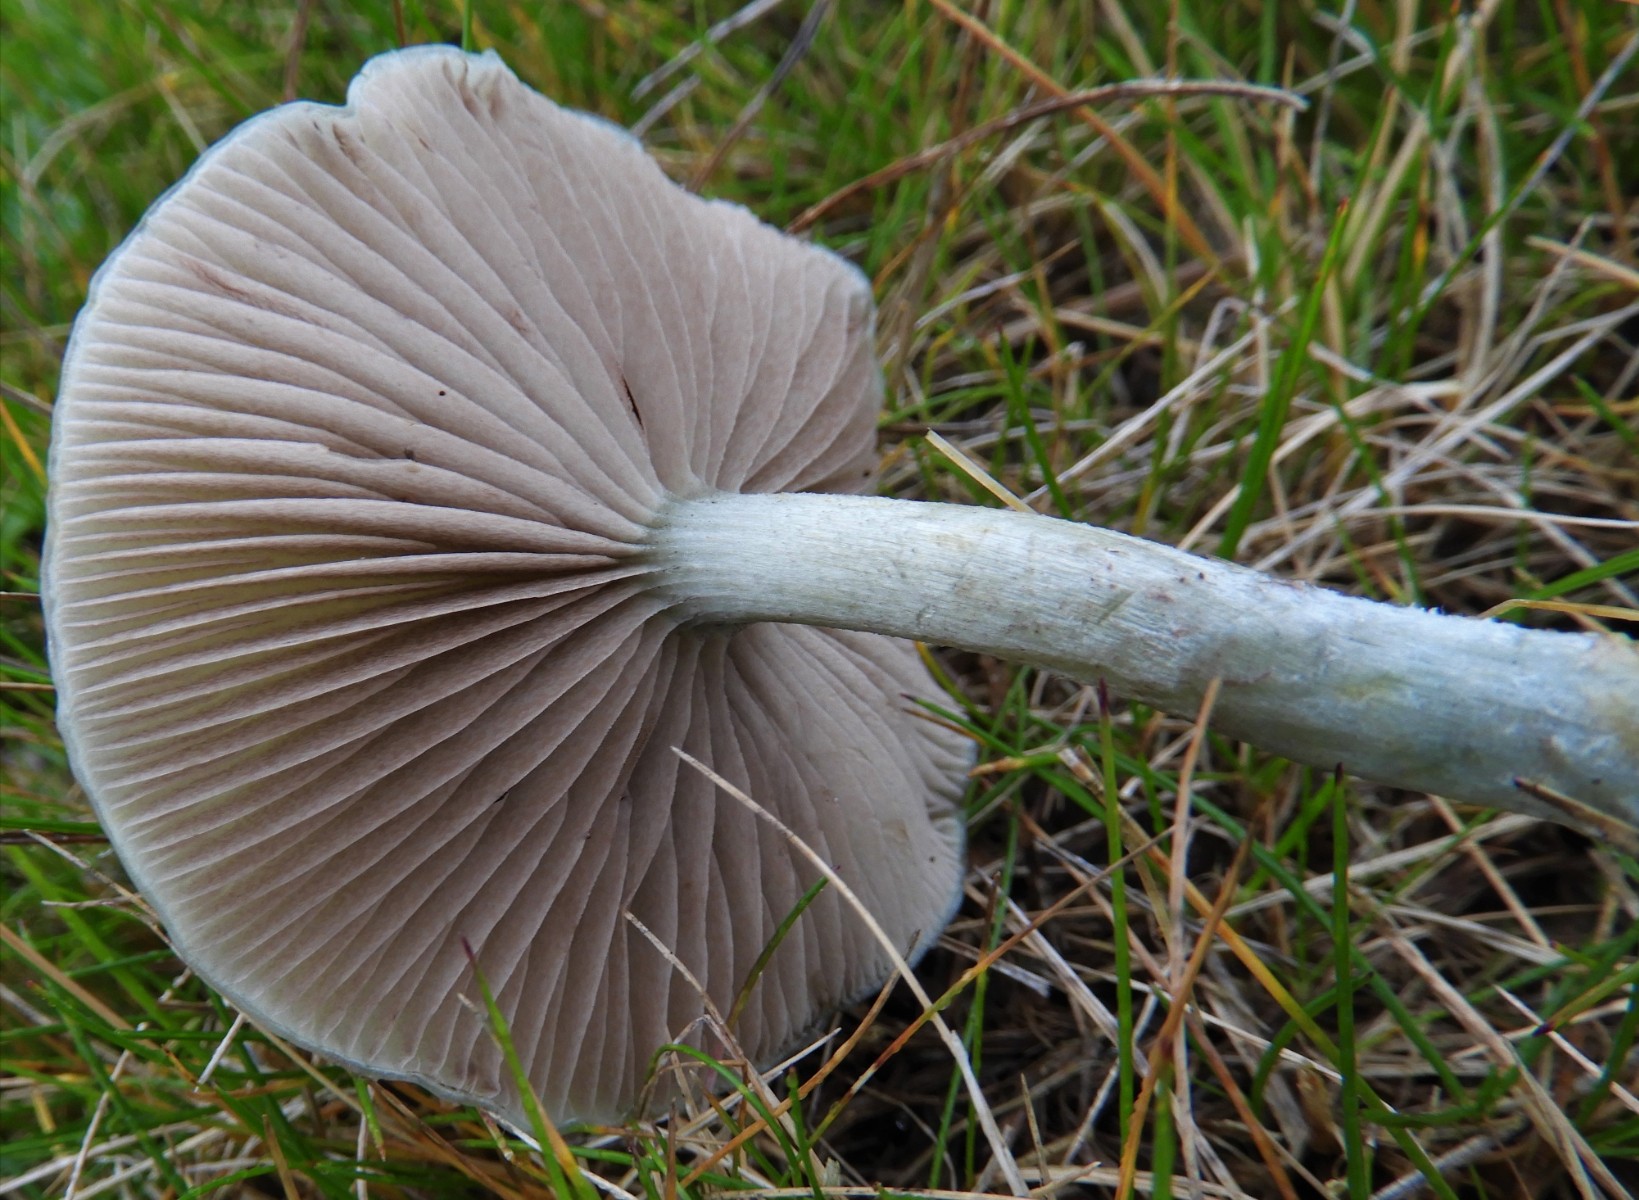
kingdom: Fungi
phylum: Basidiomycota
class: Agaricomycetes
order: Agaricales
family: Strophariaceae
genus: Stropharia
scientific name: Stropharia cyanea
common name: blågrøn bredblad
